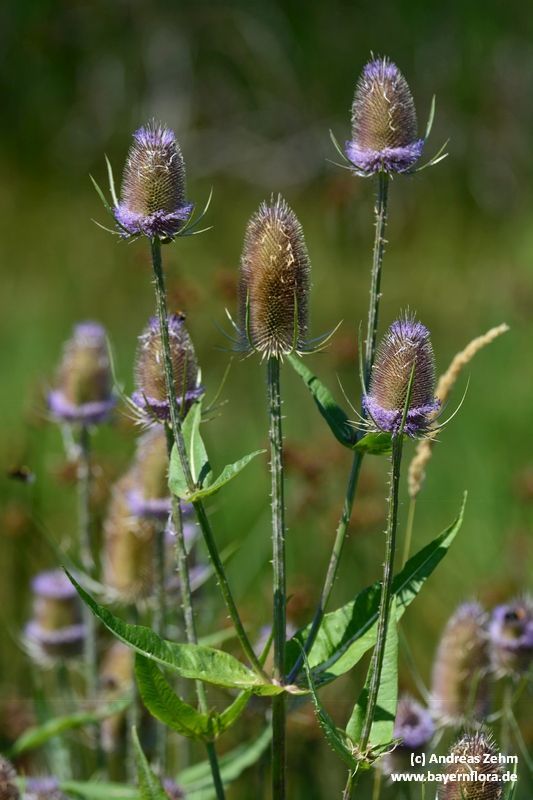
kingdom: Plantae
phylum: Tracheophyta
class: Magnoliopsida
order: Dipsacales
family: Caprifoliaceae
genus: Dipsacus
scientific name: Dipsacus fullonum
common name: Teasel
